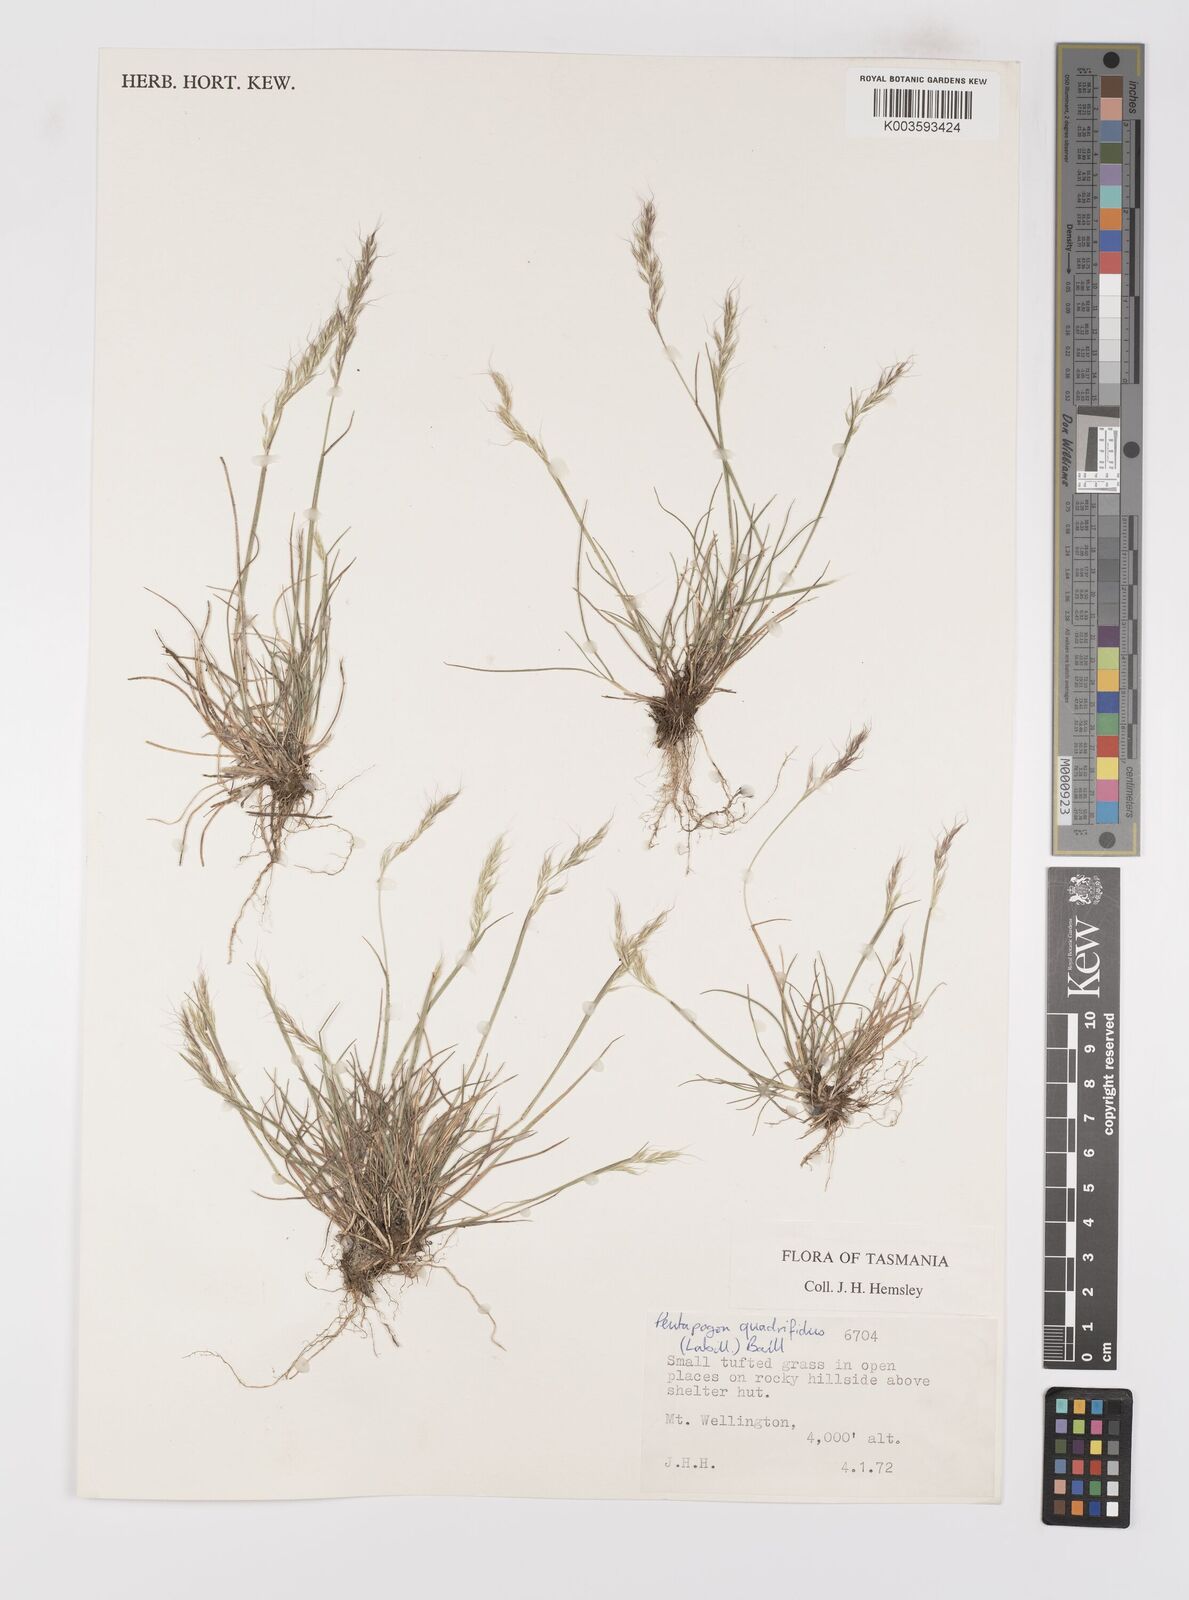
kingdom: Plantae
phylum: Tracheophyta
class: Liliopsida
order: Poales
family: Poaceae
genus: Pentapogon
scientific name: Pentapogon quadrifidus
